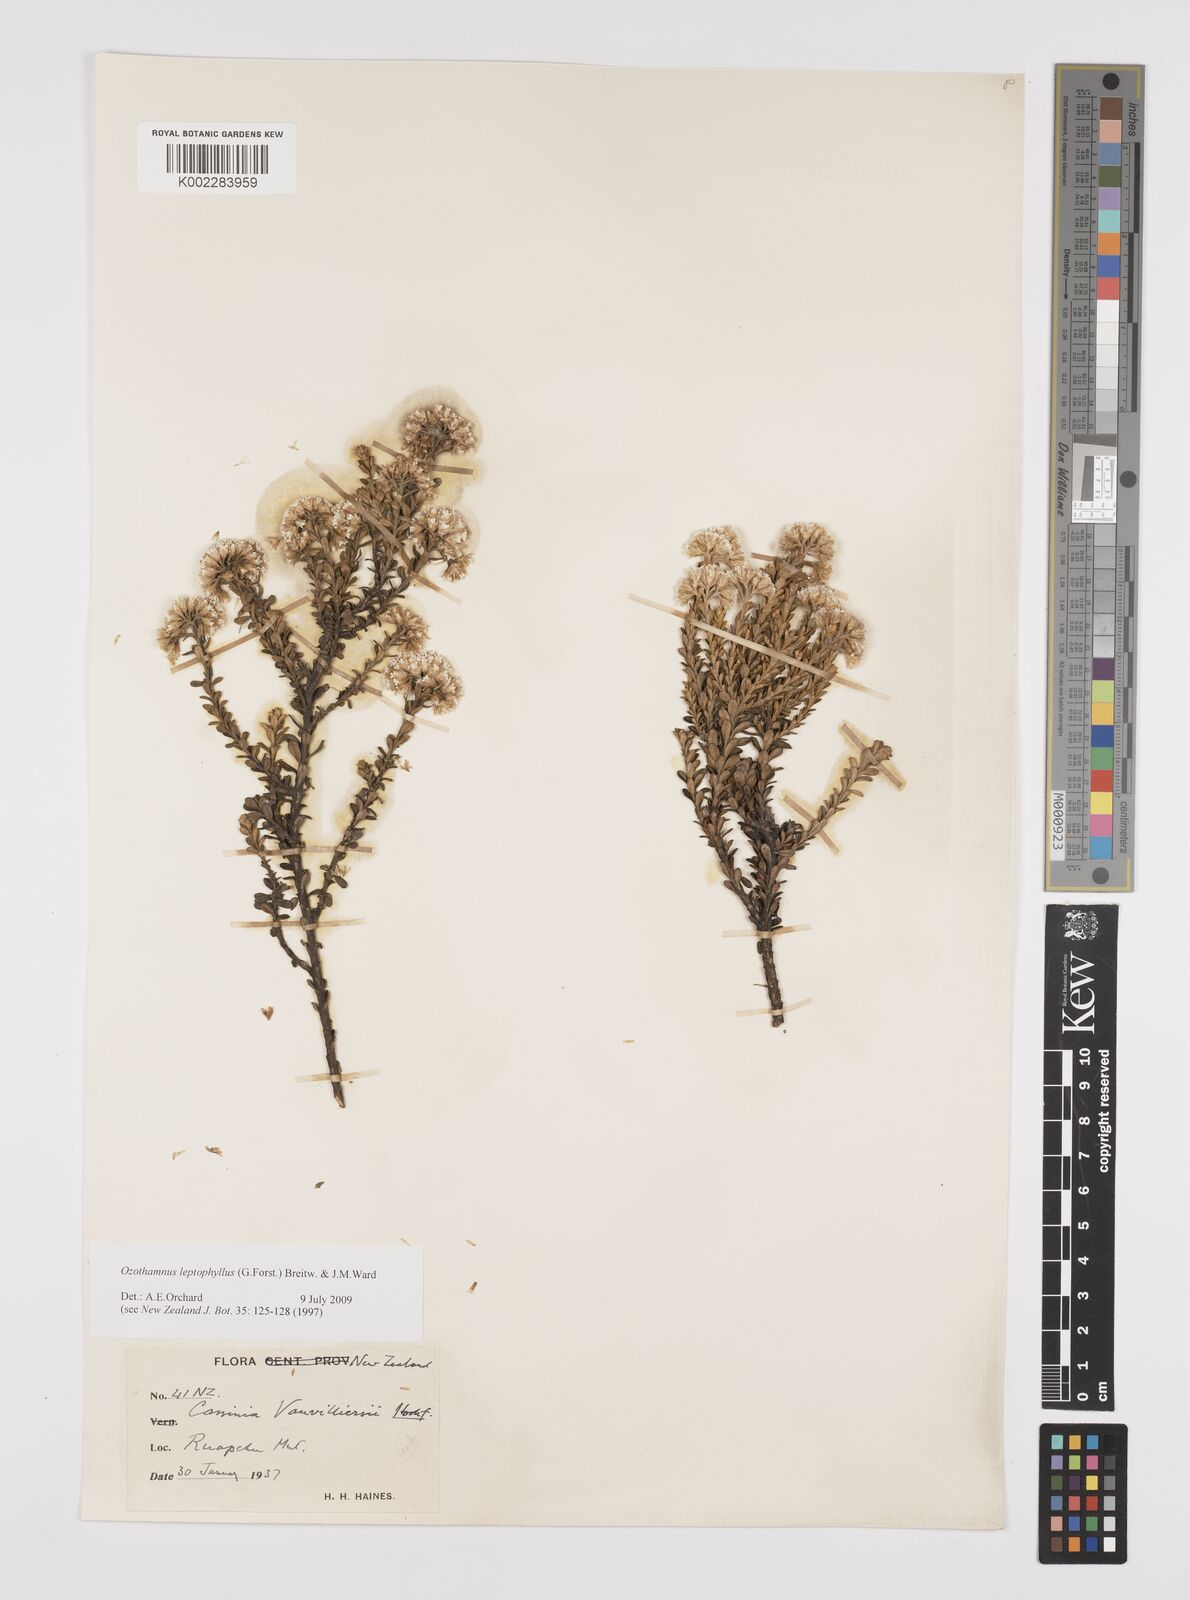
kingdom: Plantae
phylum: Tracheophyta
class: Magnoliopsida
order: Asterales
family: Asteraceae
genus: Ozothamnus
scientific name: Ozothamnus leptophyllus
